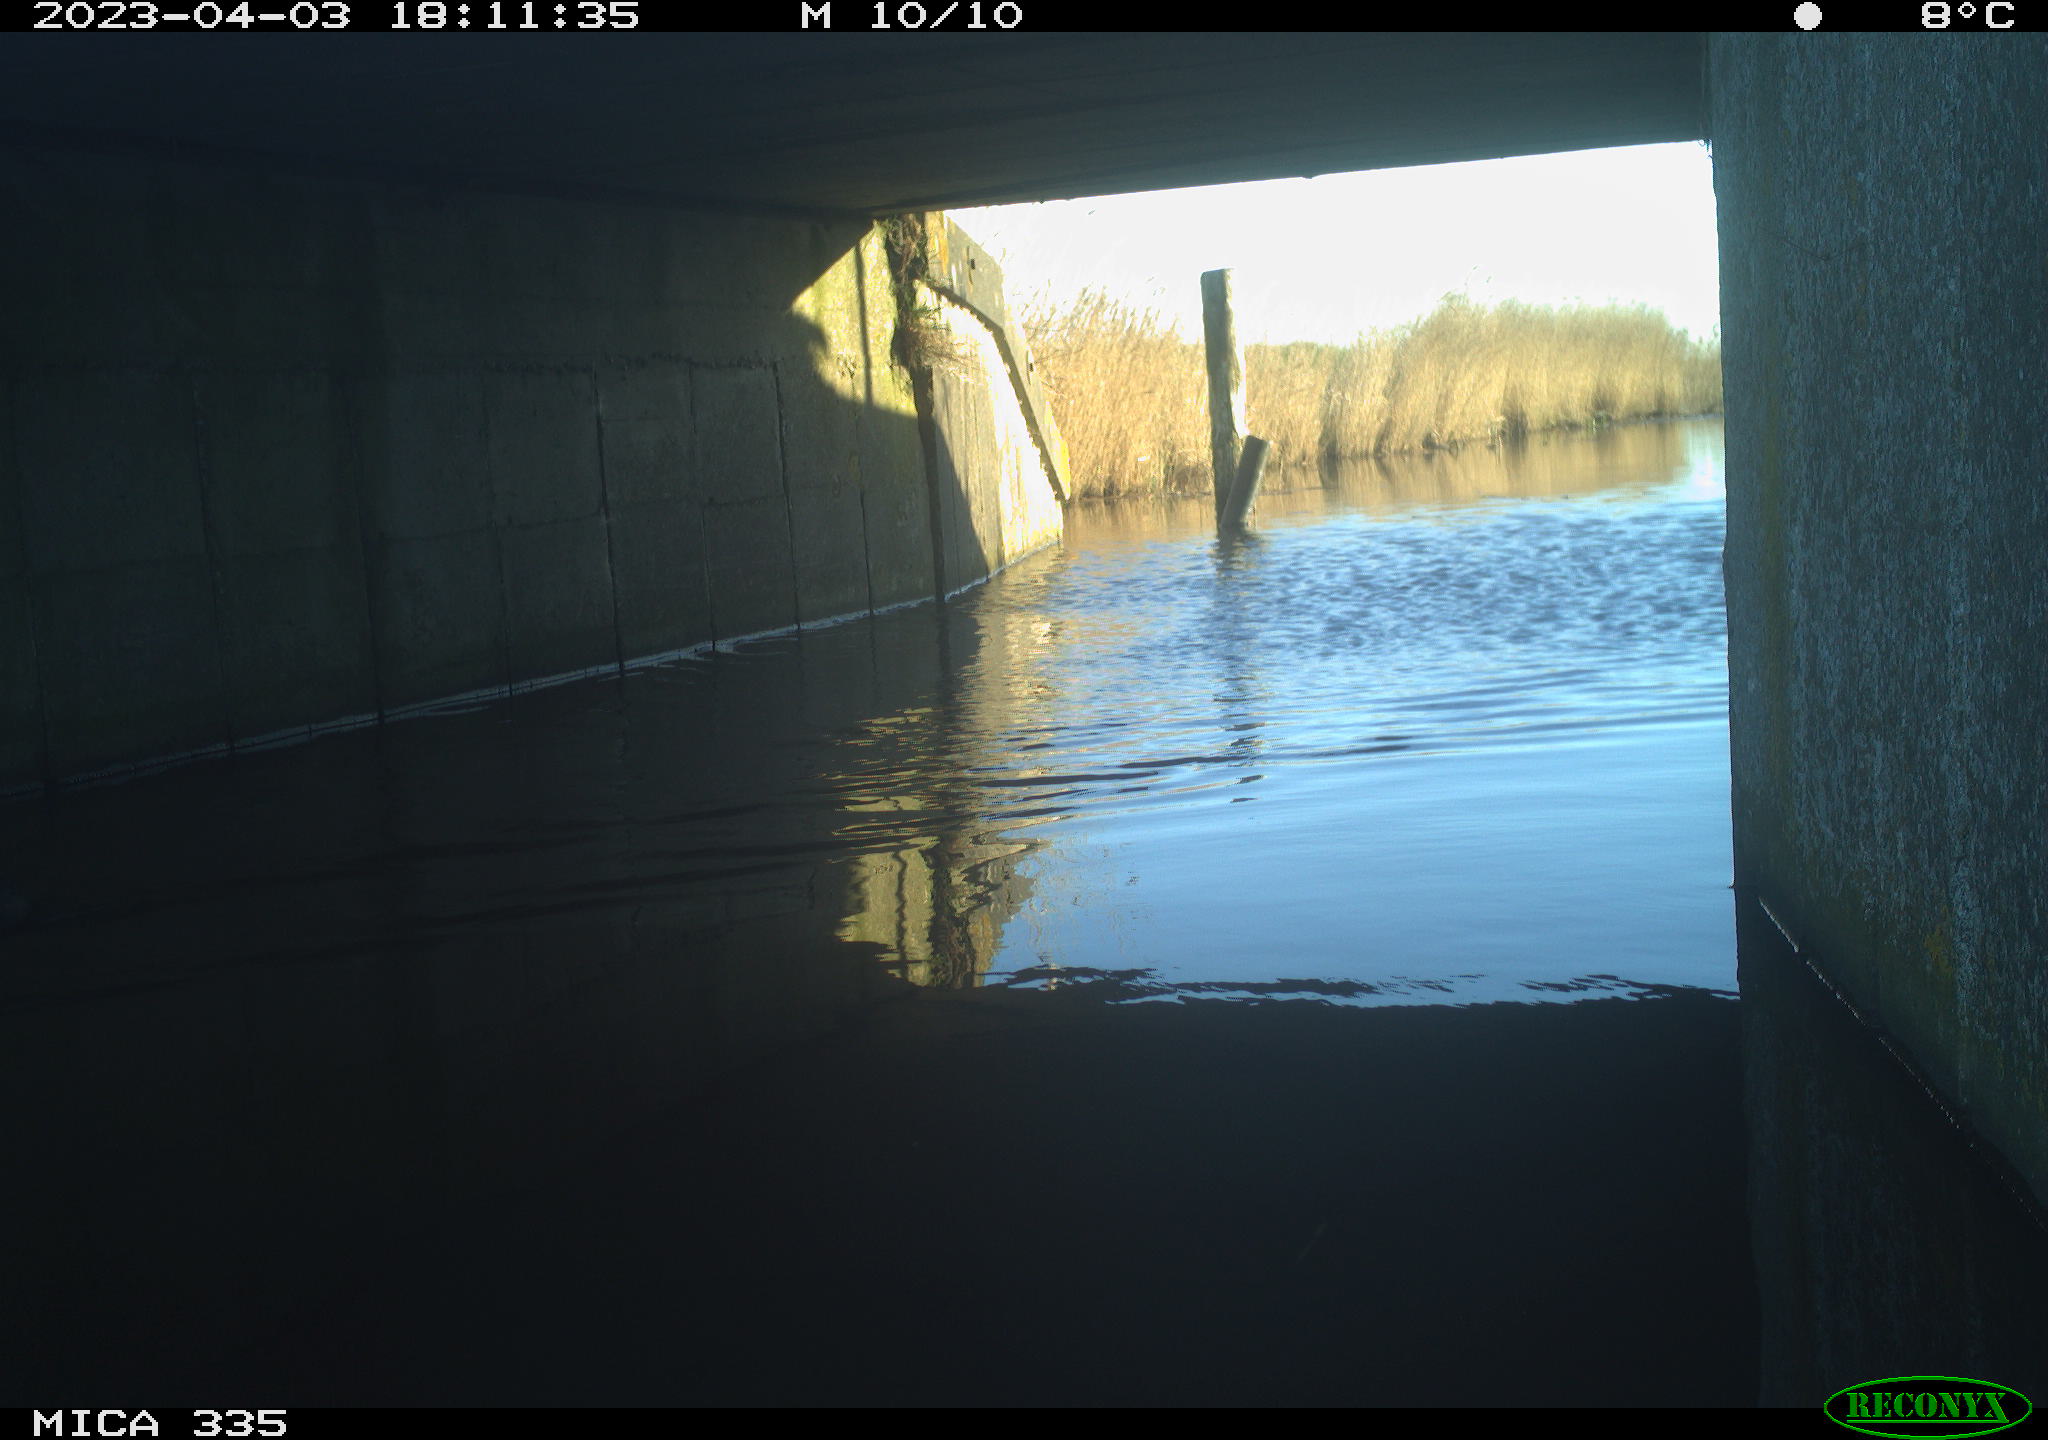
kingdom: Animalia
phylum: Chordata
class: Aves
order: Anseriformes
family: Anatidae
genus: Anas
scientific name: Anas
